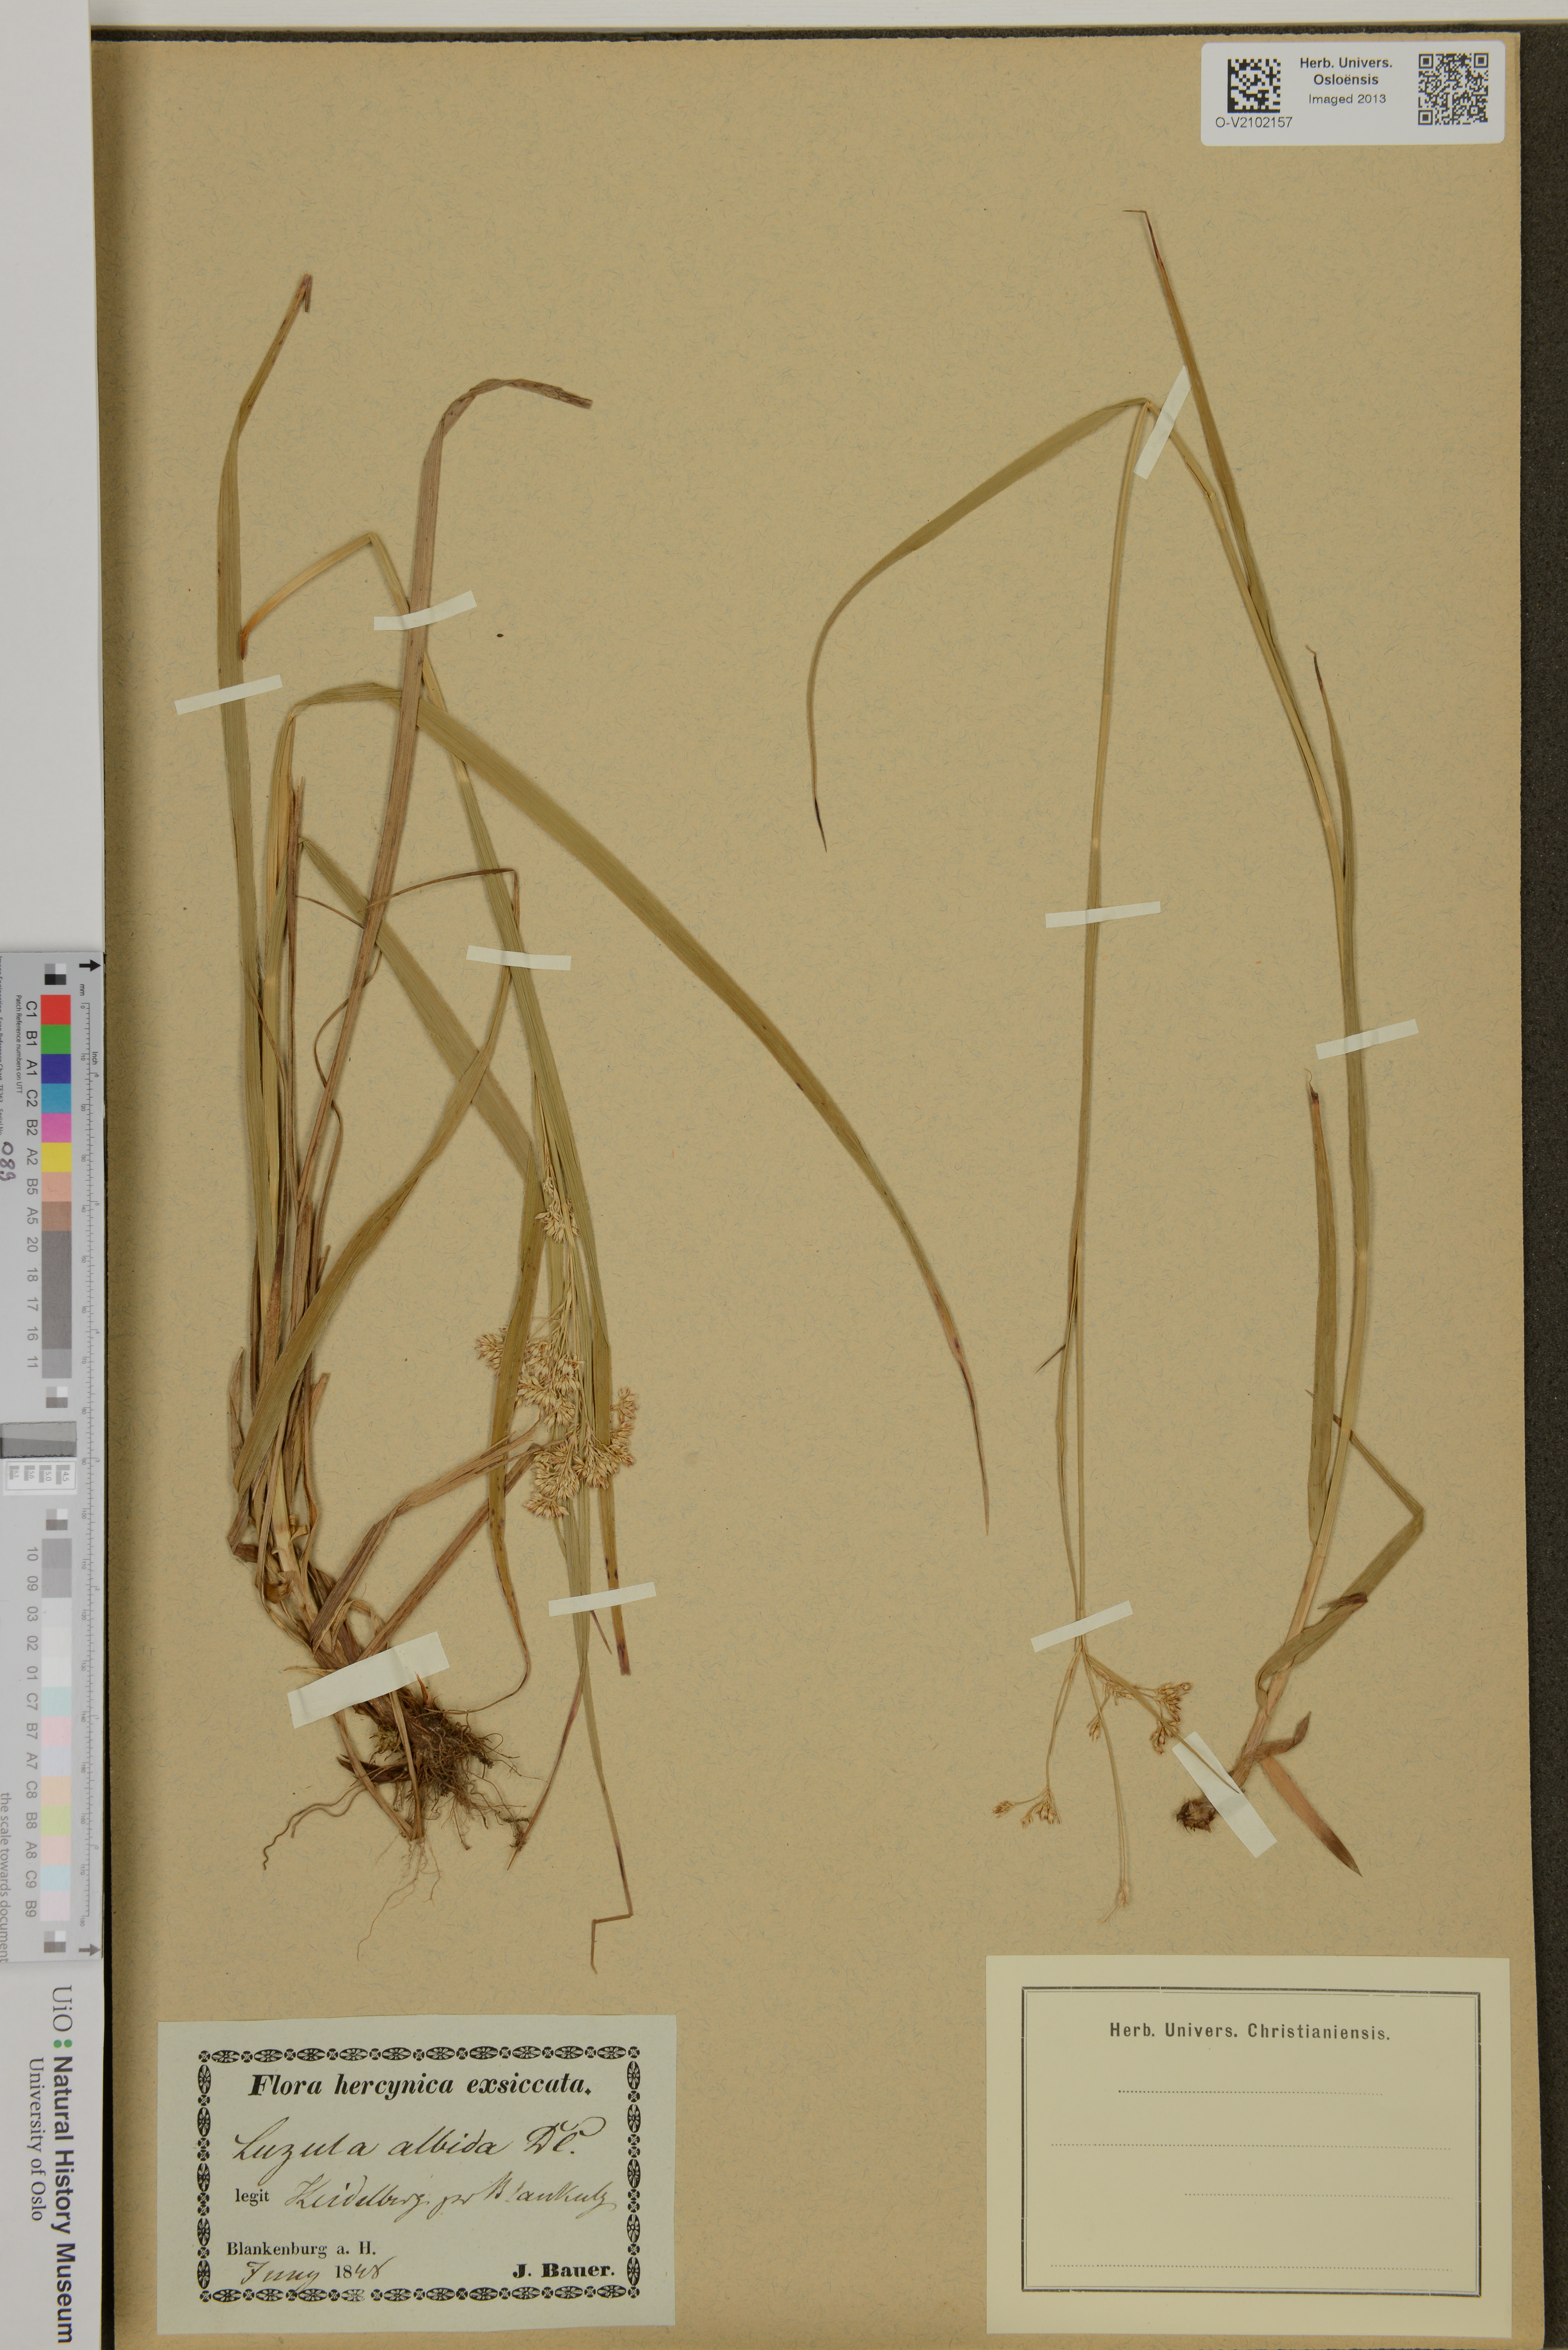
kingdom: Plantae
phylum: Tracheophyta
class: Liliopsida
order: Poales
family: Juncaceae
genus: Luzula
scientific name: Luzula luzuloides
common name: White wood-rush
